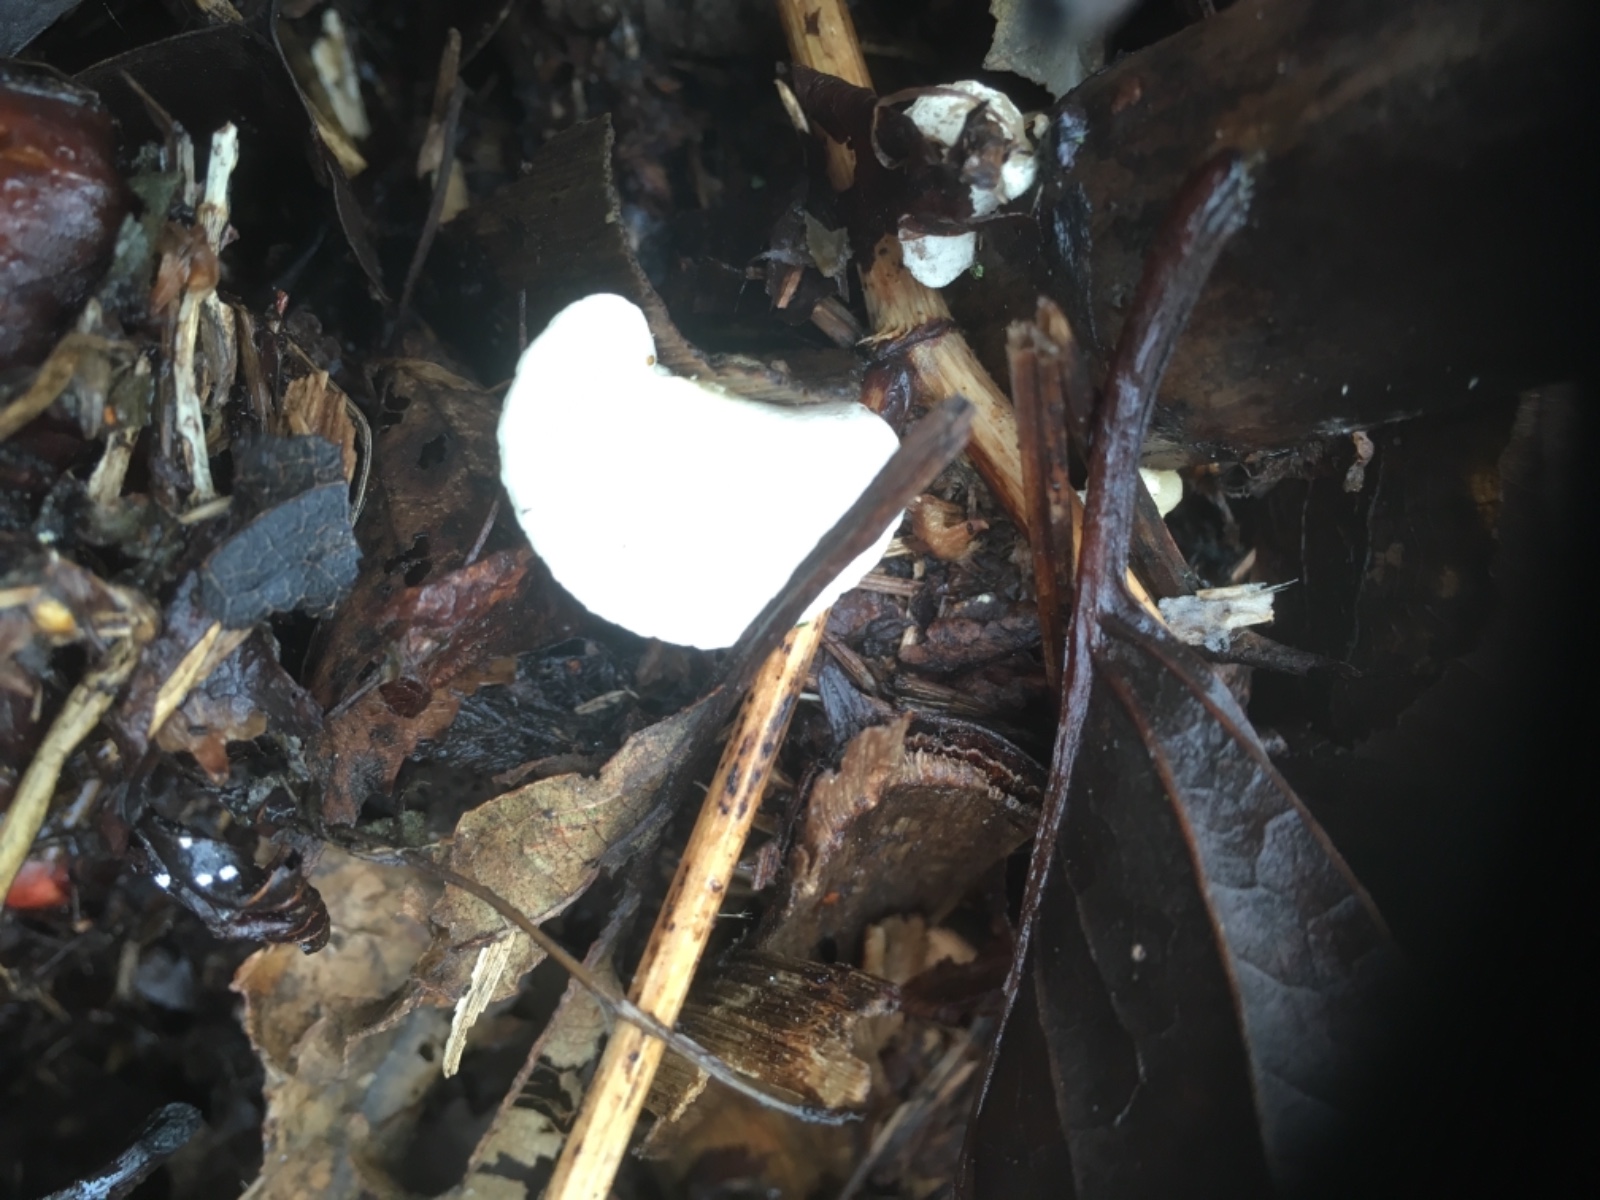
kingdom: Fungi
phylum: Basidiomycota
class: Agaricomycetes
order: Agaricales
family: Crepidotaceae
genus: Crepidotus
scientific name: Crepidotus luteolus
